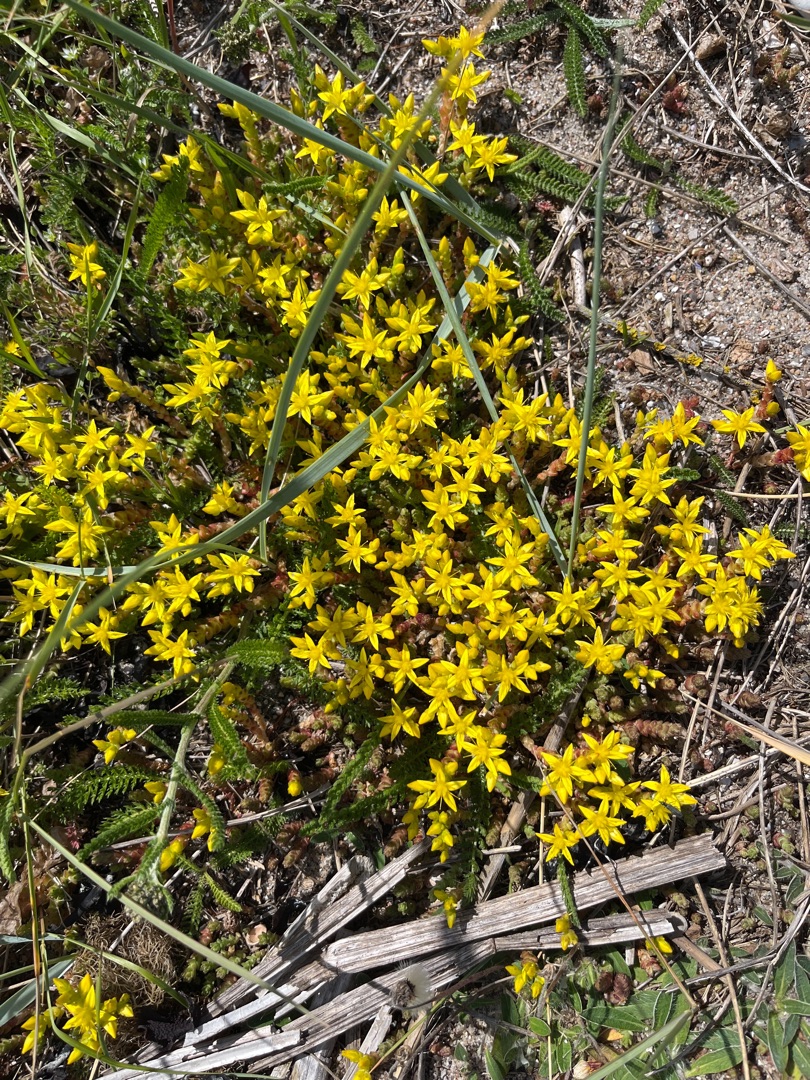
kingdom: Plantae
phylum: Tracheophyta
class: Magnoliopsida
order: Saxifragales
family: Crassulaceae
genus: Sedum
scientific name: Sedum acre
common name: Bidende stenurt
